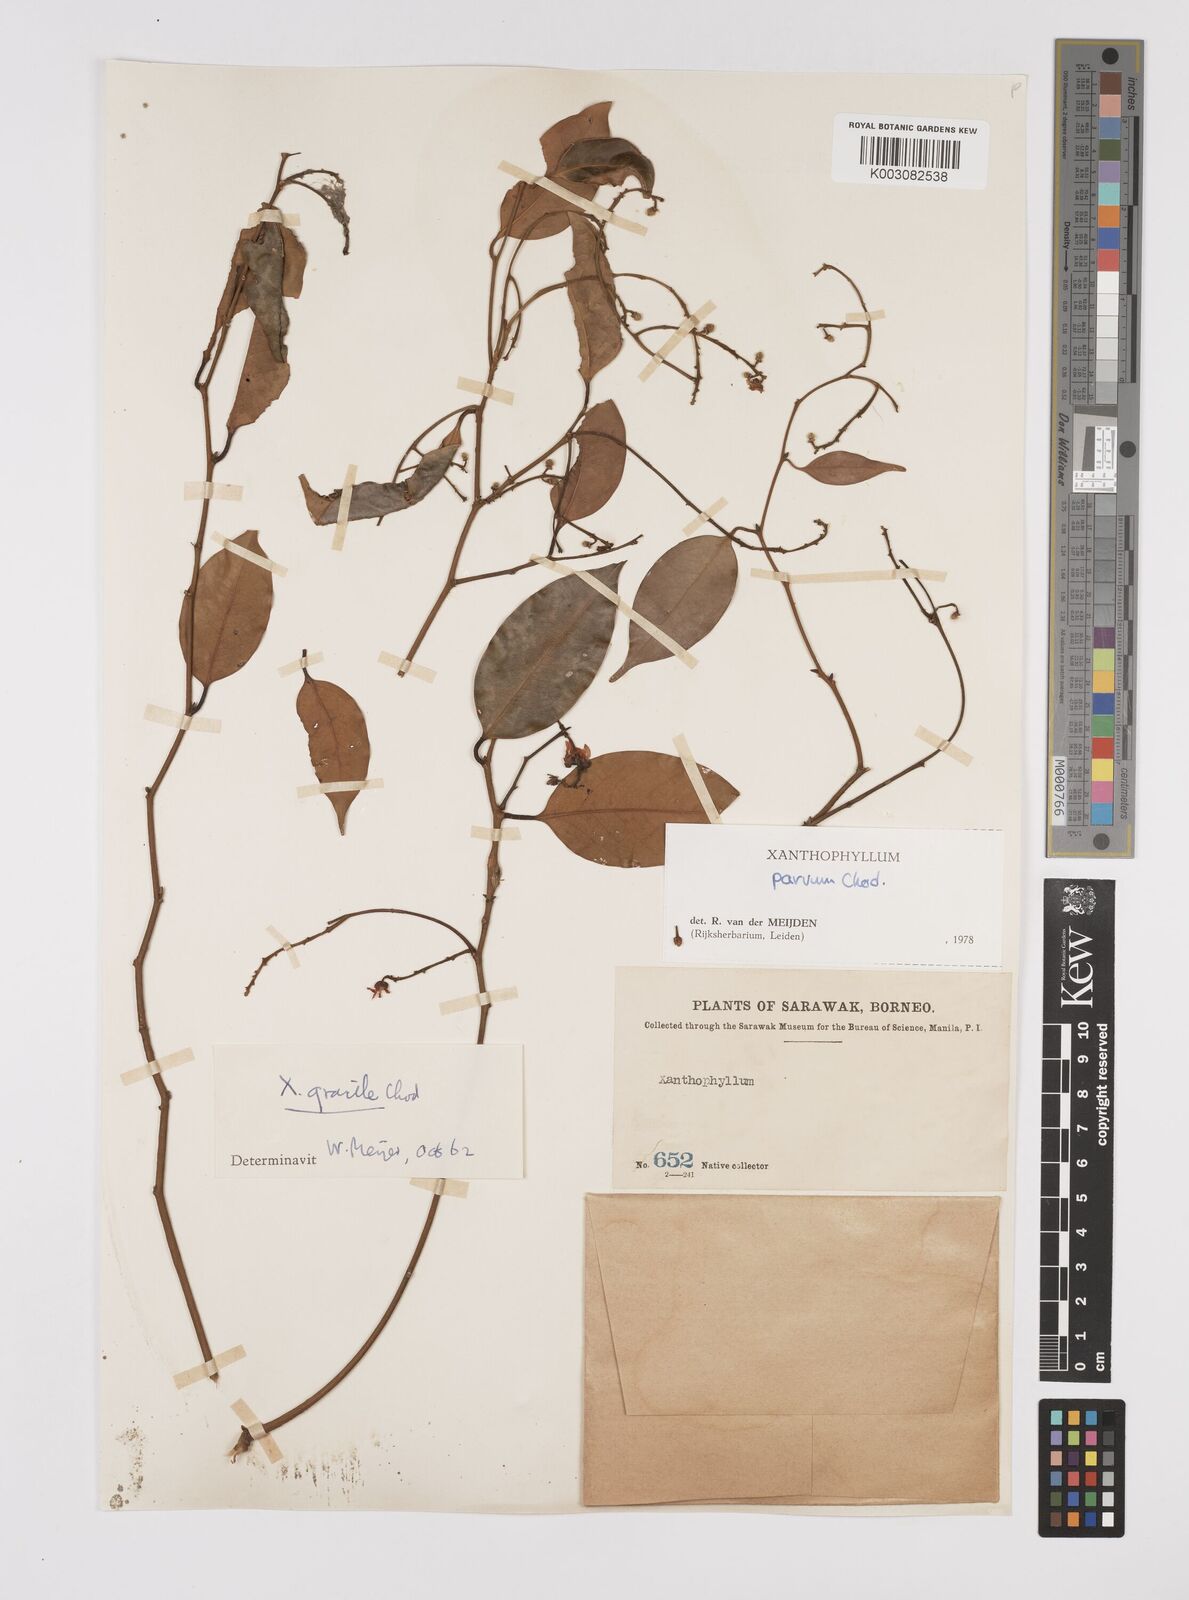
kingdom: Plantae
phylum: Tracheophyta
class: Magnoliopsida
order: Fabales
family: Polygalaceae
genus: Xanthophyllum
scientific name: Xanthophyllum griffithii
